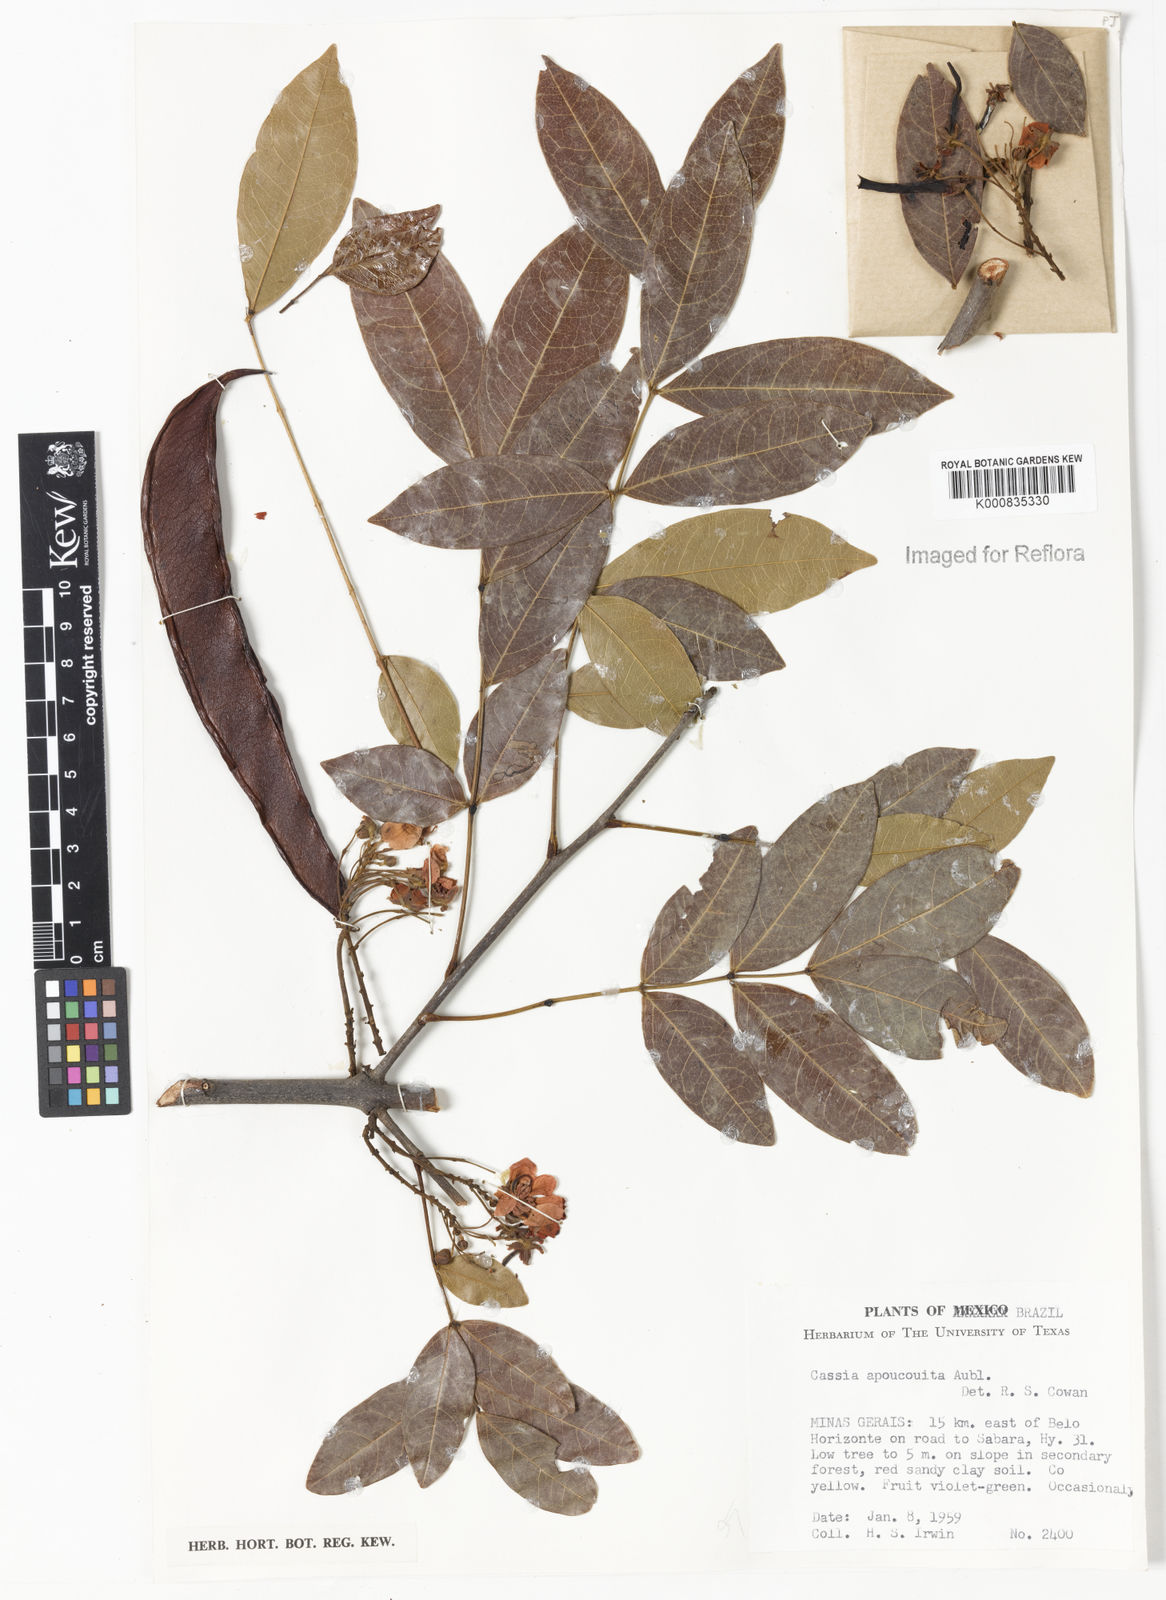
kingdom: Plantae
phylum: Tracheophyta
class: Magnoliopsida
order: Fabales
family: Fabaceae
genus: Chamaecrista
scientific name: Chamaecrista apoucouita
